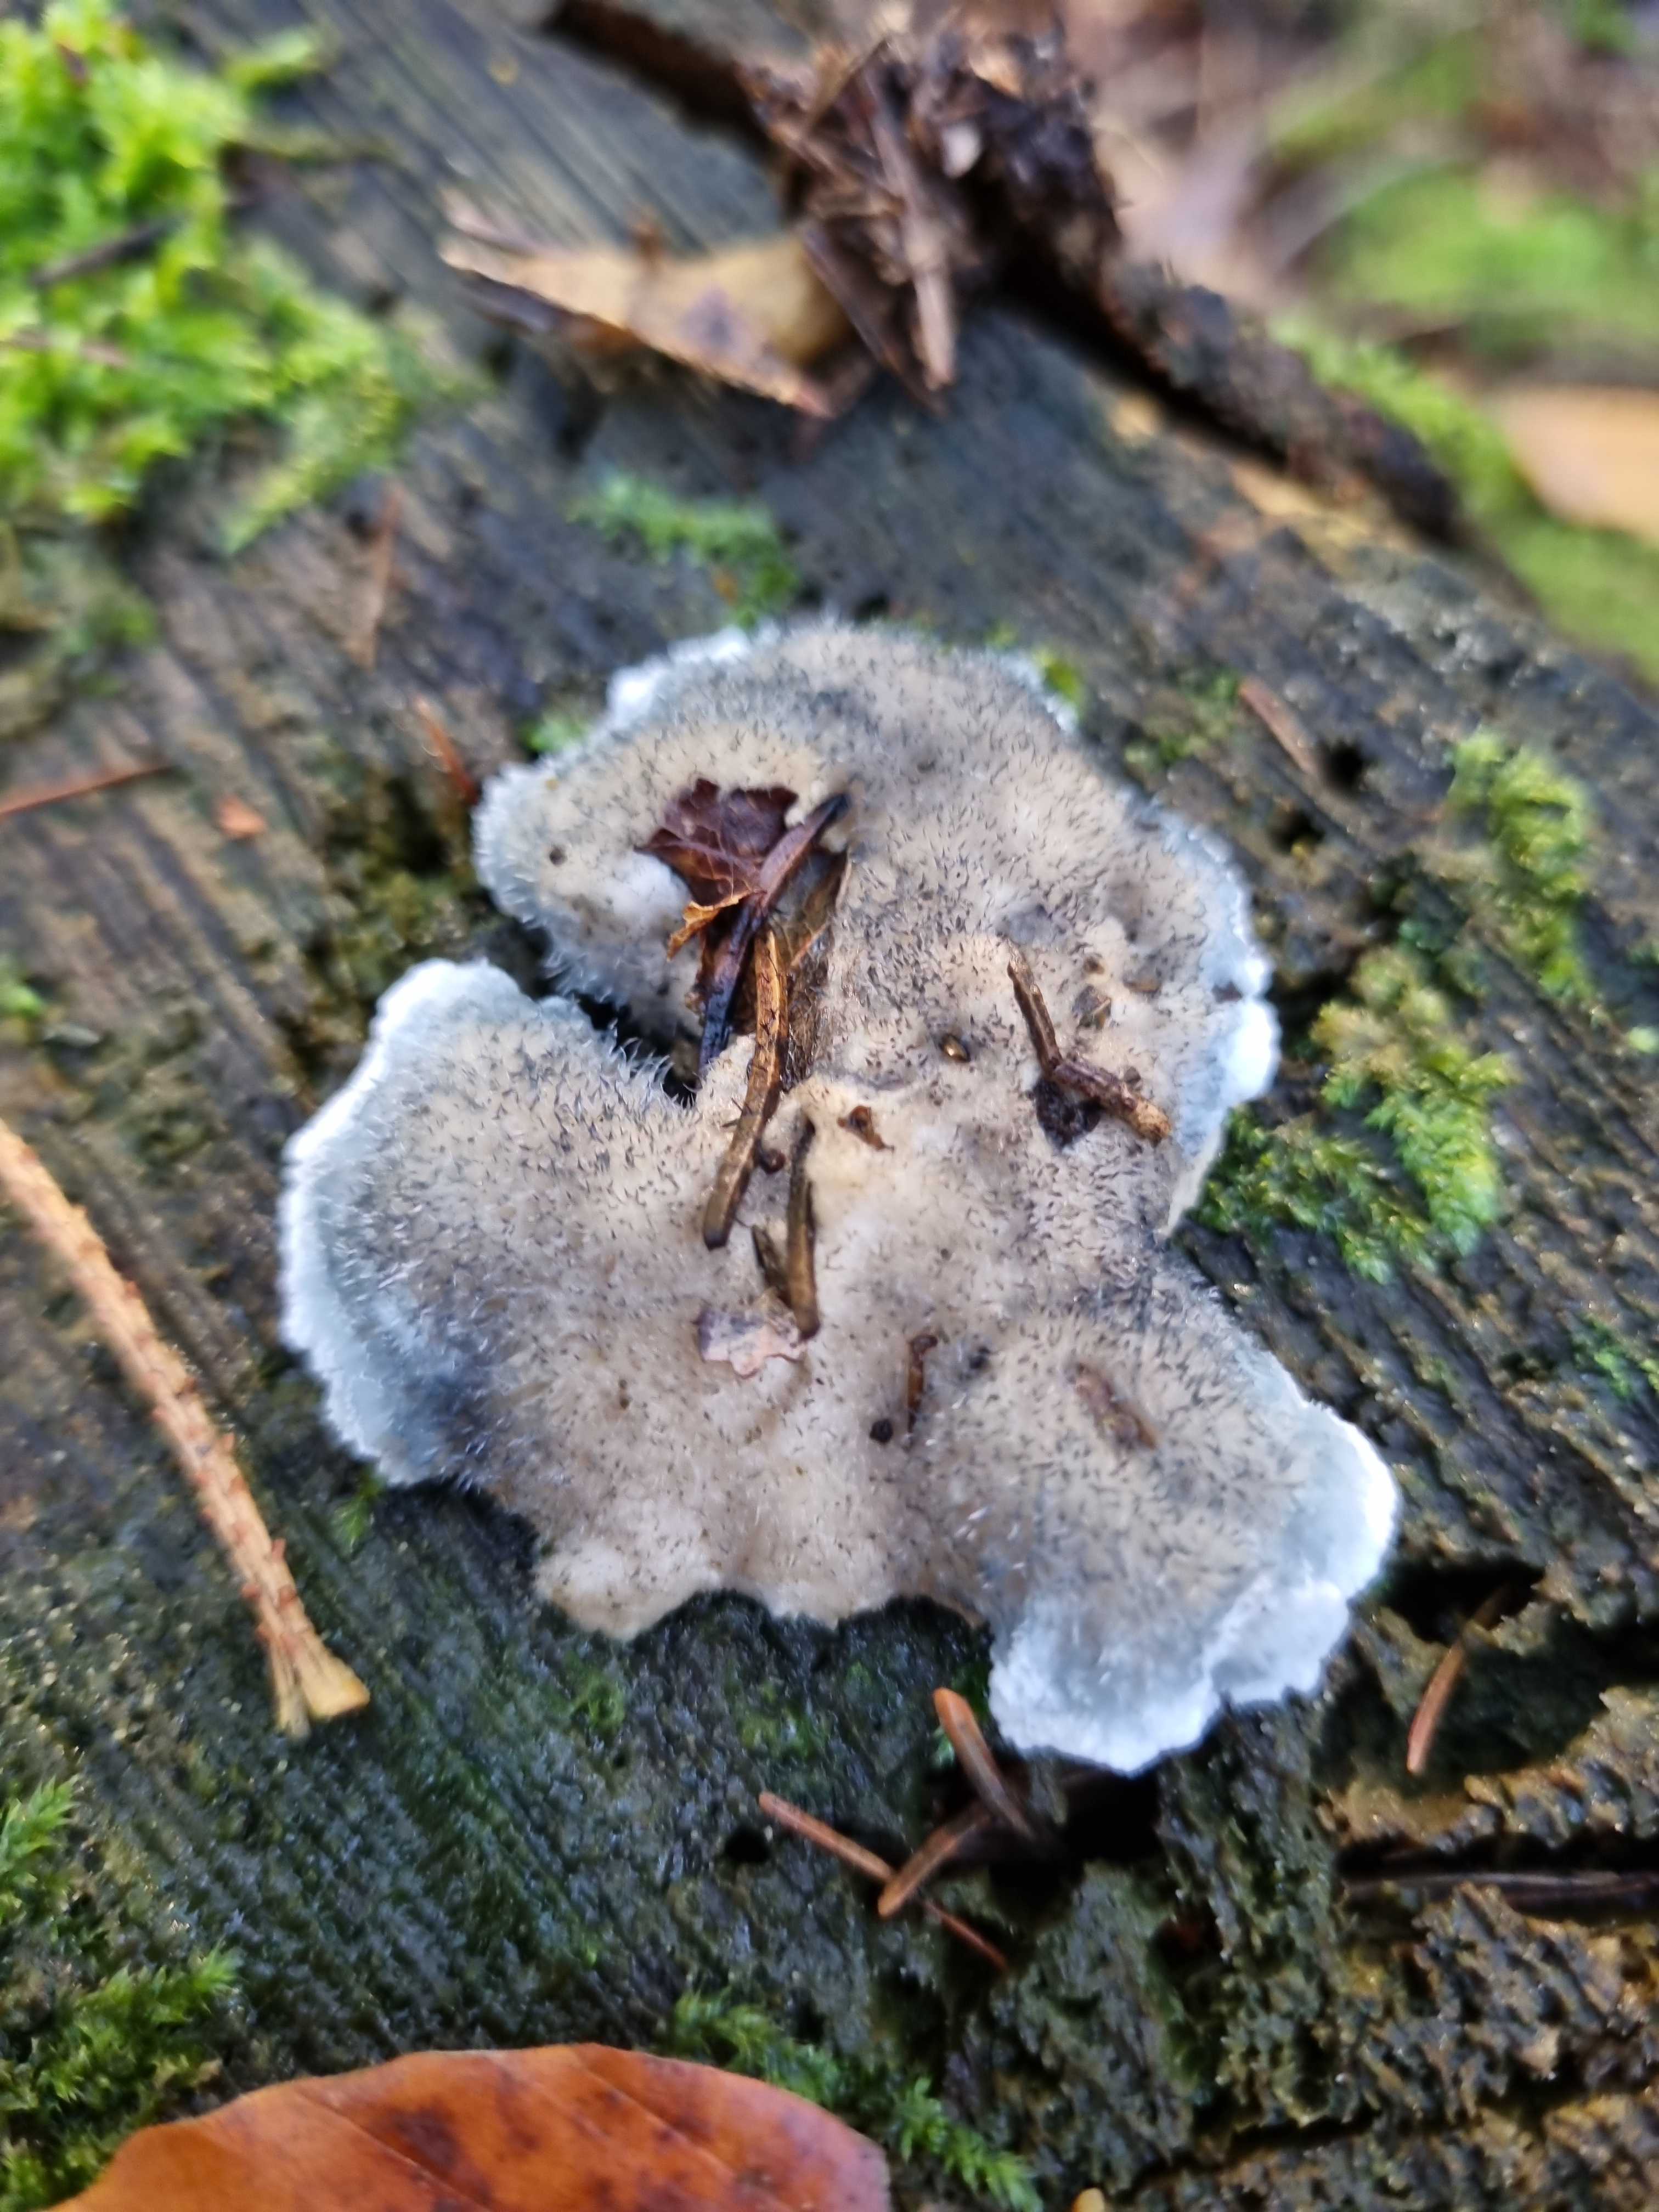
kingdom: Fungi
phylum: Basidiomycota
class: Agaricomycetes
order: Polyporales
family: Polyporaceae
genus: Cyanosporus
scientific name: Cyanosporus caesius
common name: blålig kødporesvamp
